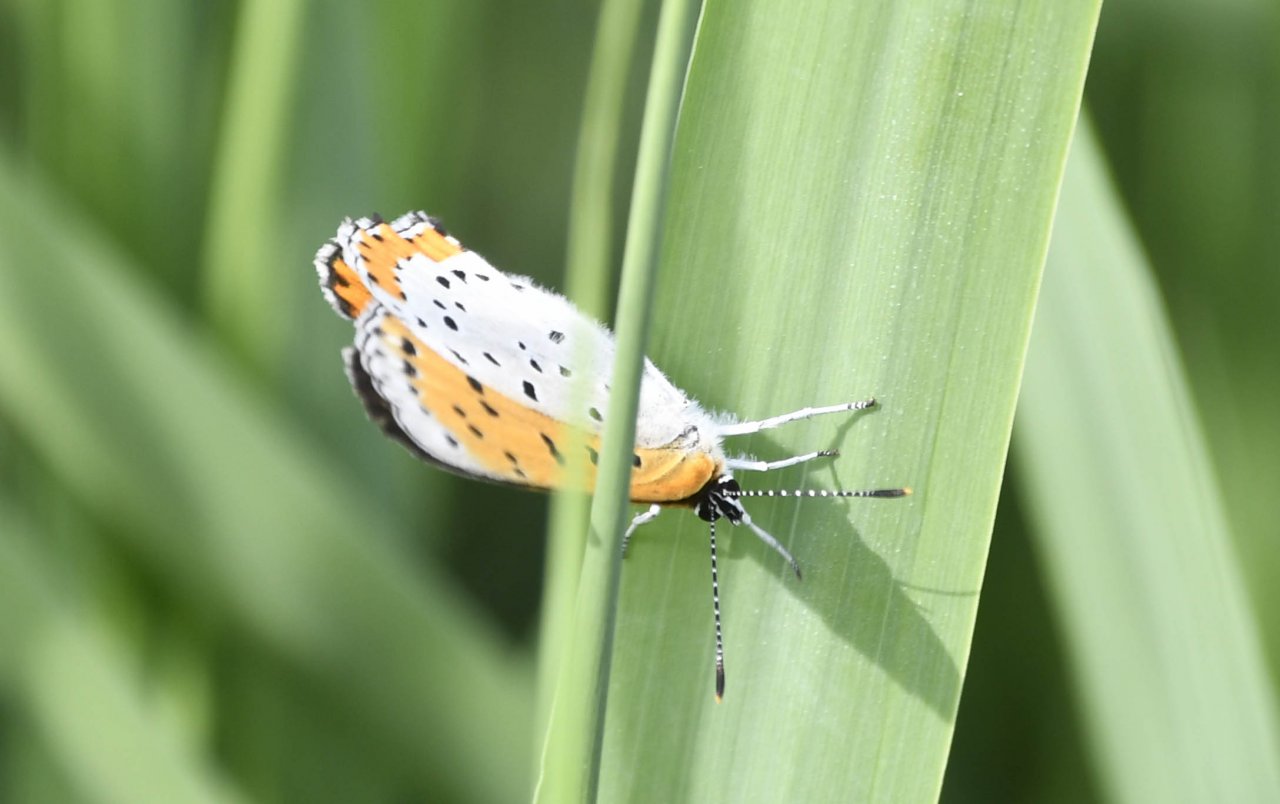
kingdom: Animalia
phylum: Arthropoda
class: Insecta
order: Lepidoptera
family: Sesiidae
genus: Sesia
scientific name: Sesia Lycaena hyllus
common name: Bronze Copper
